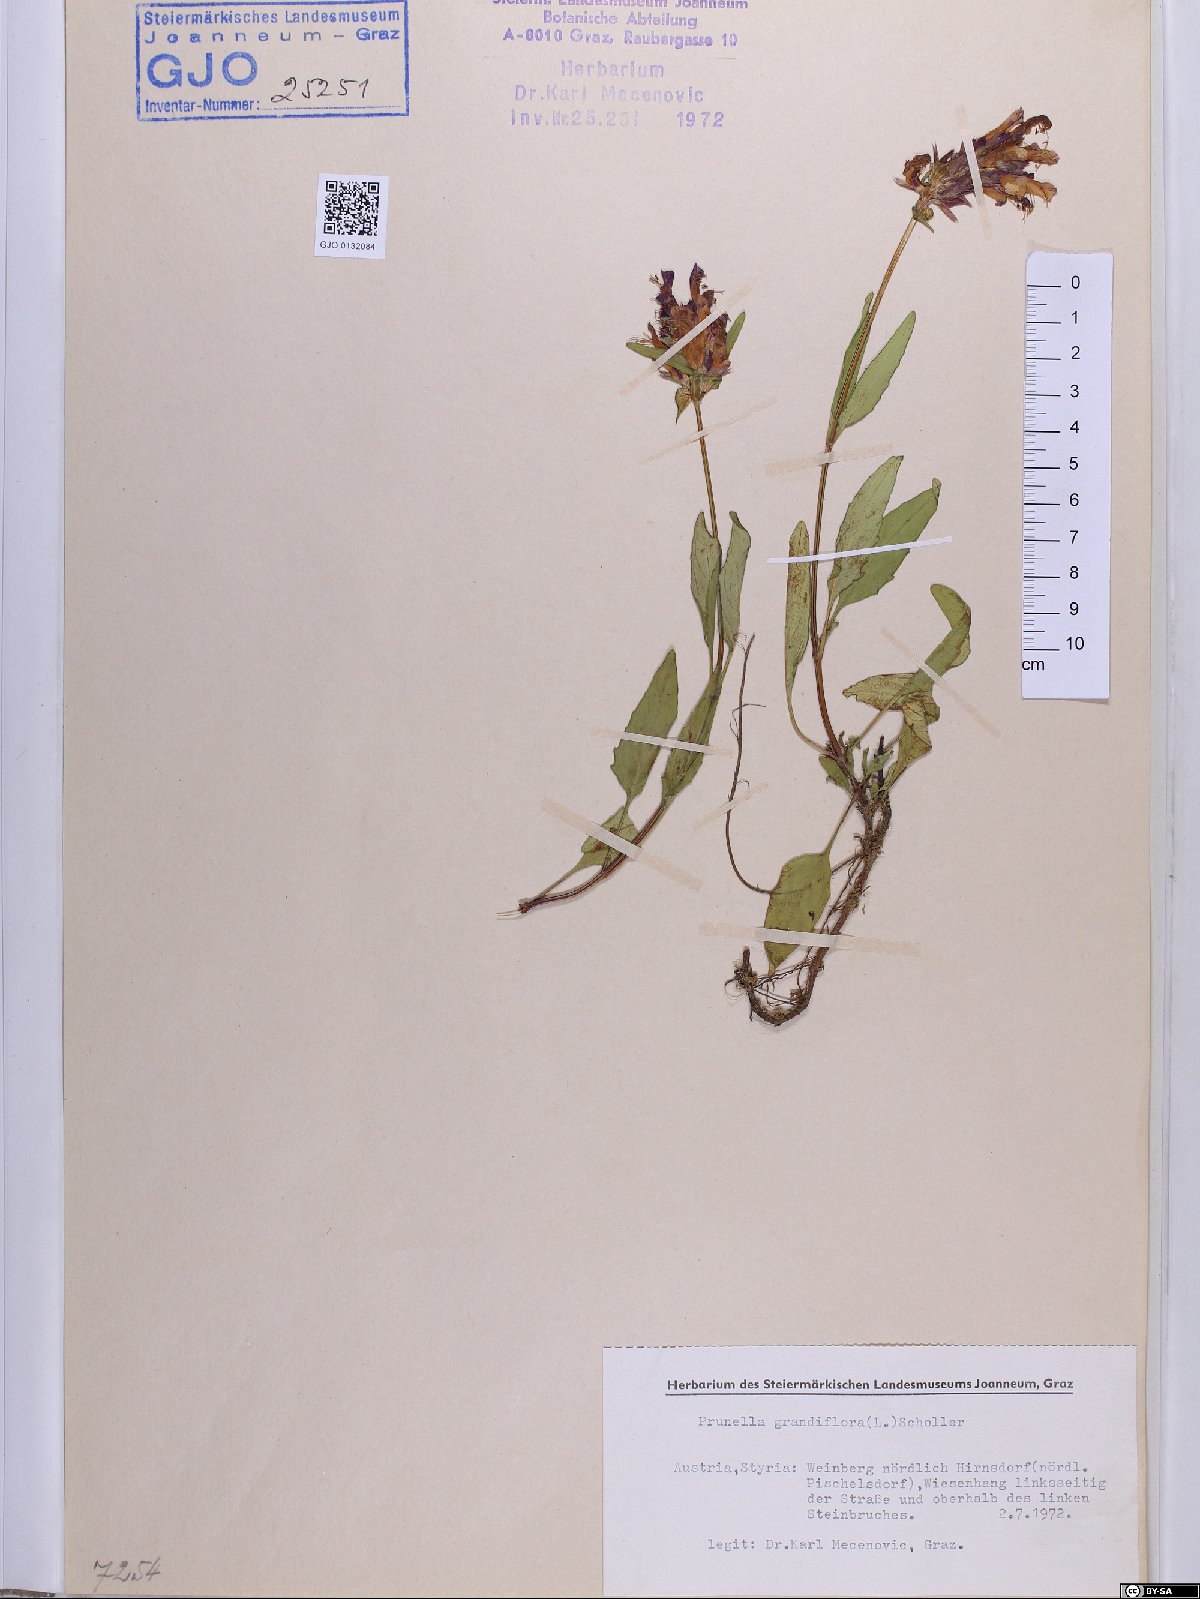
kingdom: Plantae
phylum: Tracheophyta
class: Magnoliopsida
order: Lamiales
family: Lamiaceae
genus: Prunella
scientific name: Prunella grandiflora
